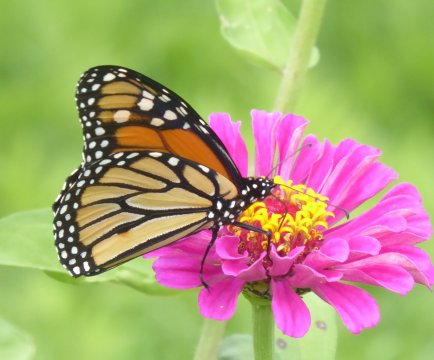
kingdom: Animalia
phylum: Arthropoda
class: Insecta
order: Lepidoptera
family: Nymphalidae
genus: Danaus
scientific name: Danaus plexippus
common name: Monarch
